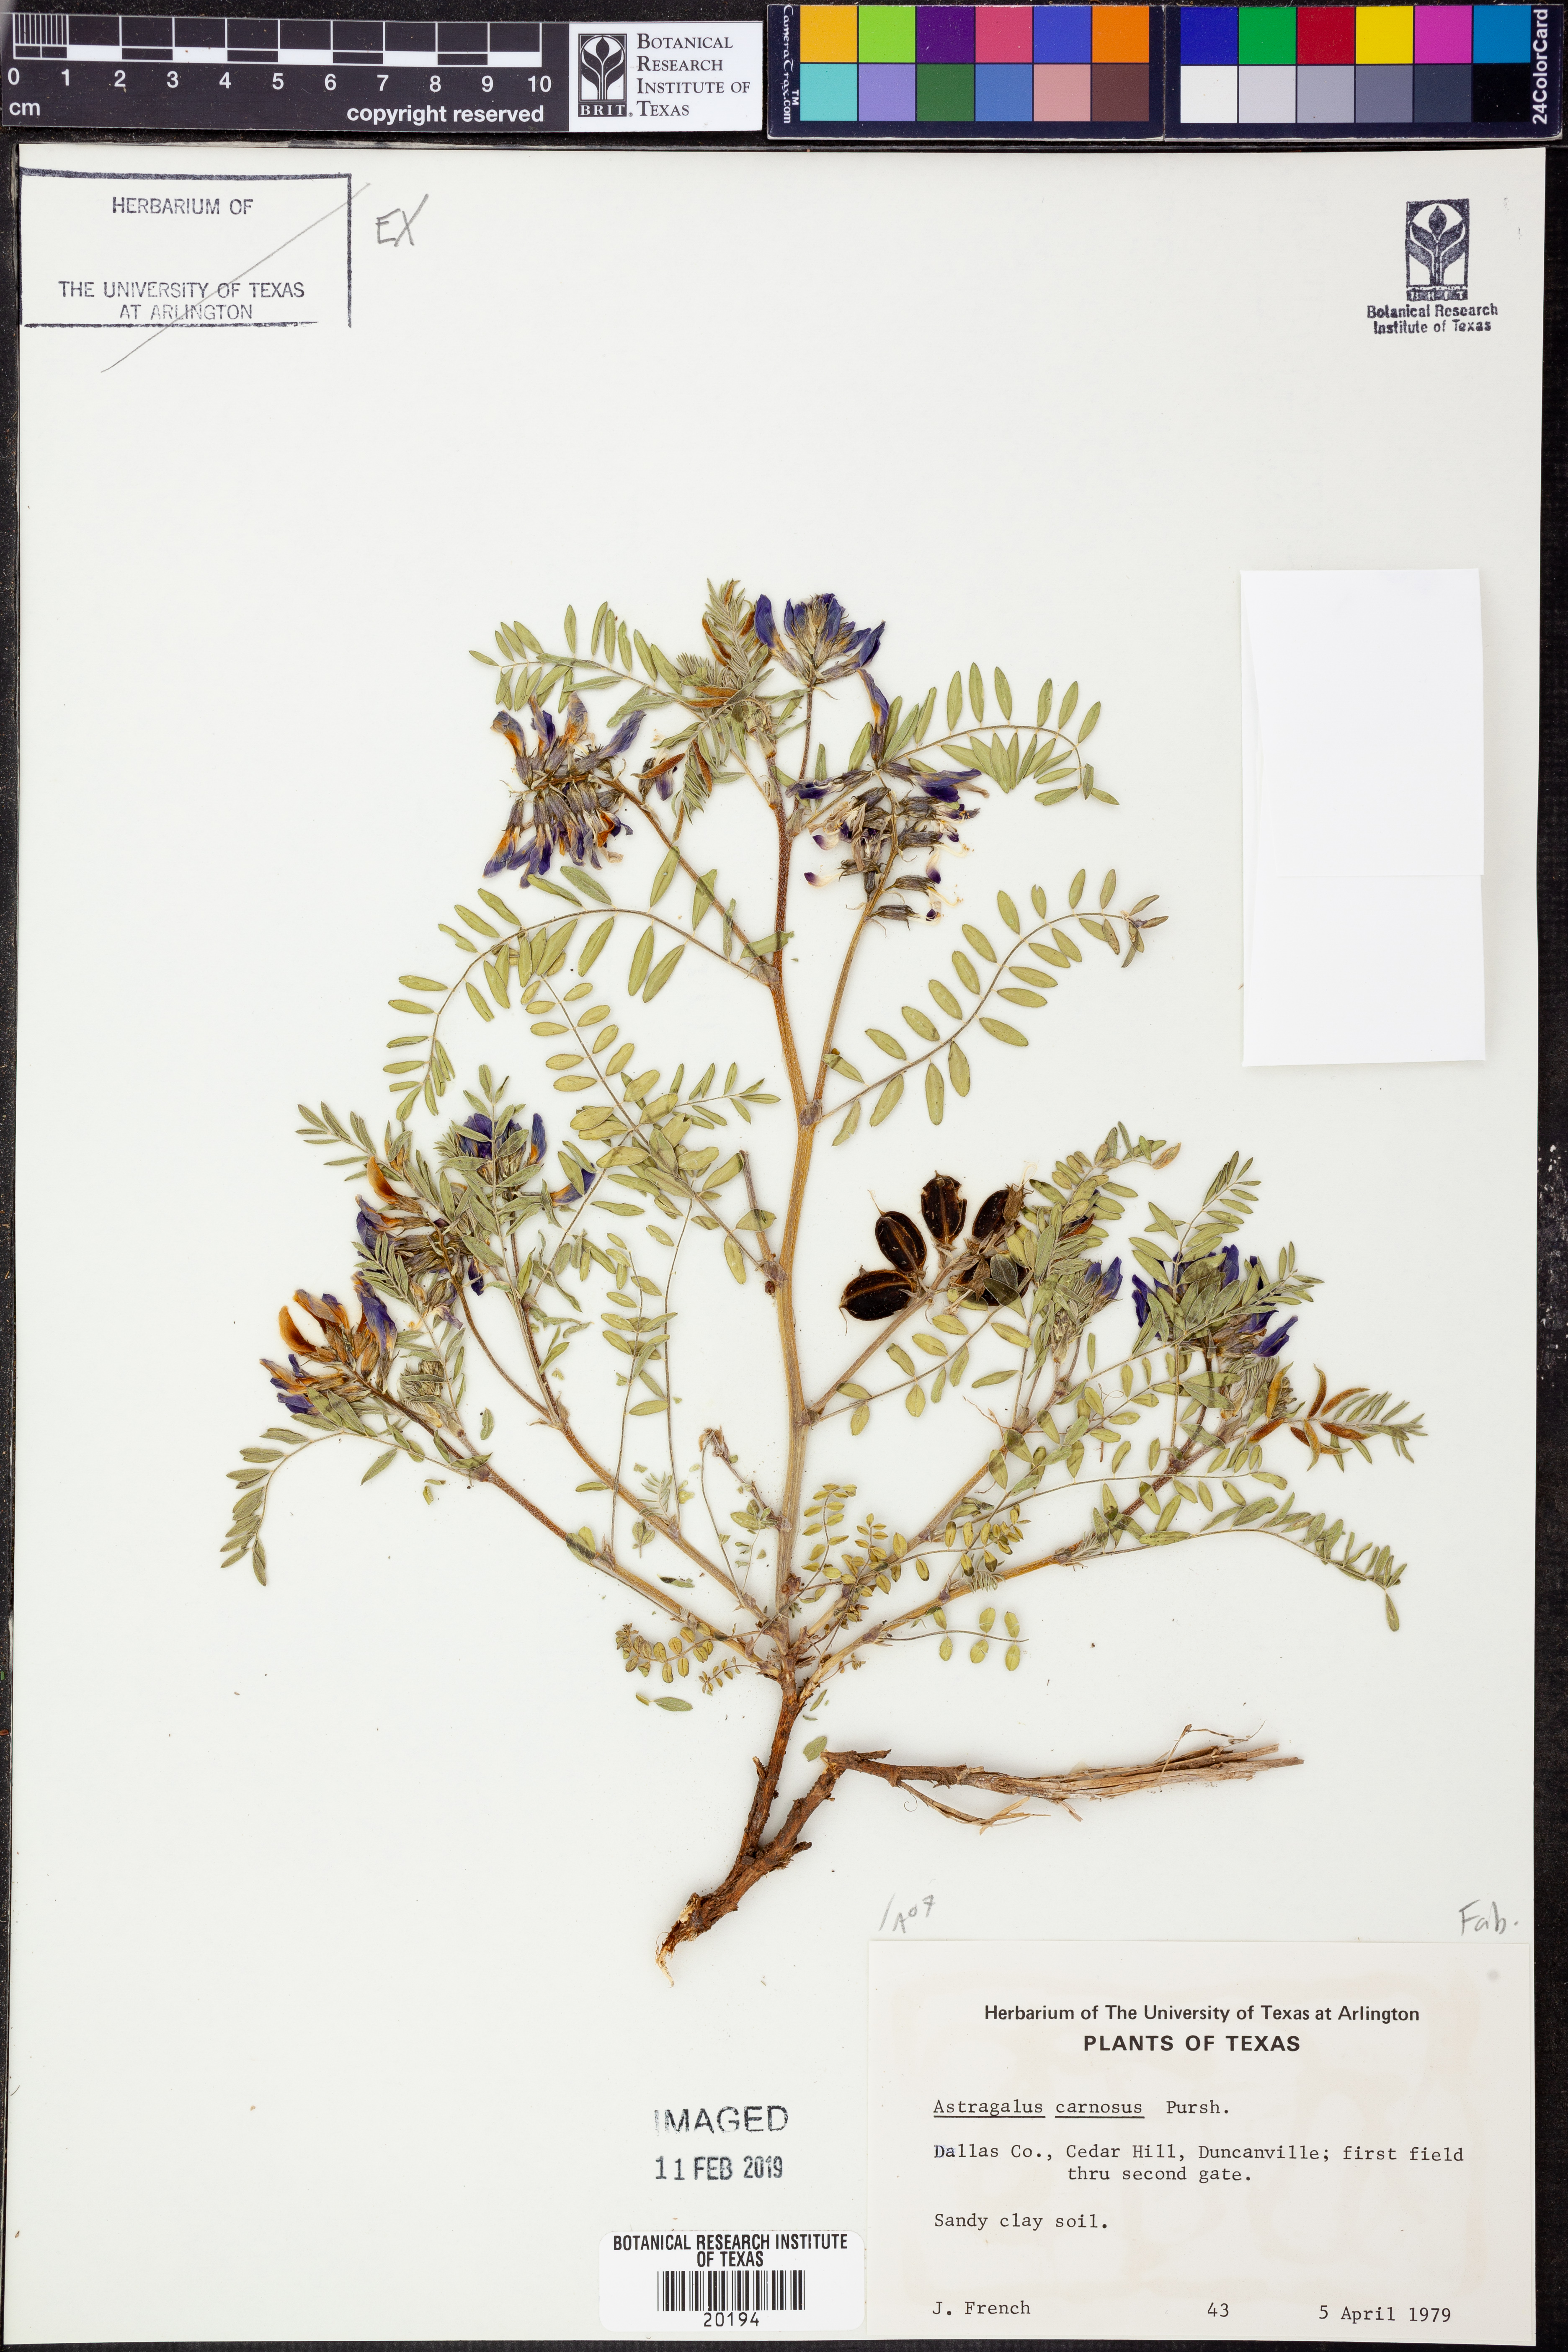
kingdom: Plantae
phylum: Tracheophyta
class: Magnoliopsida
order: Fabales
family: Fabaceae
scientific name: Fabaceae
